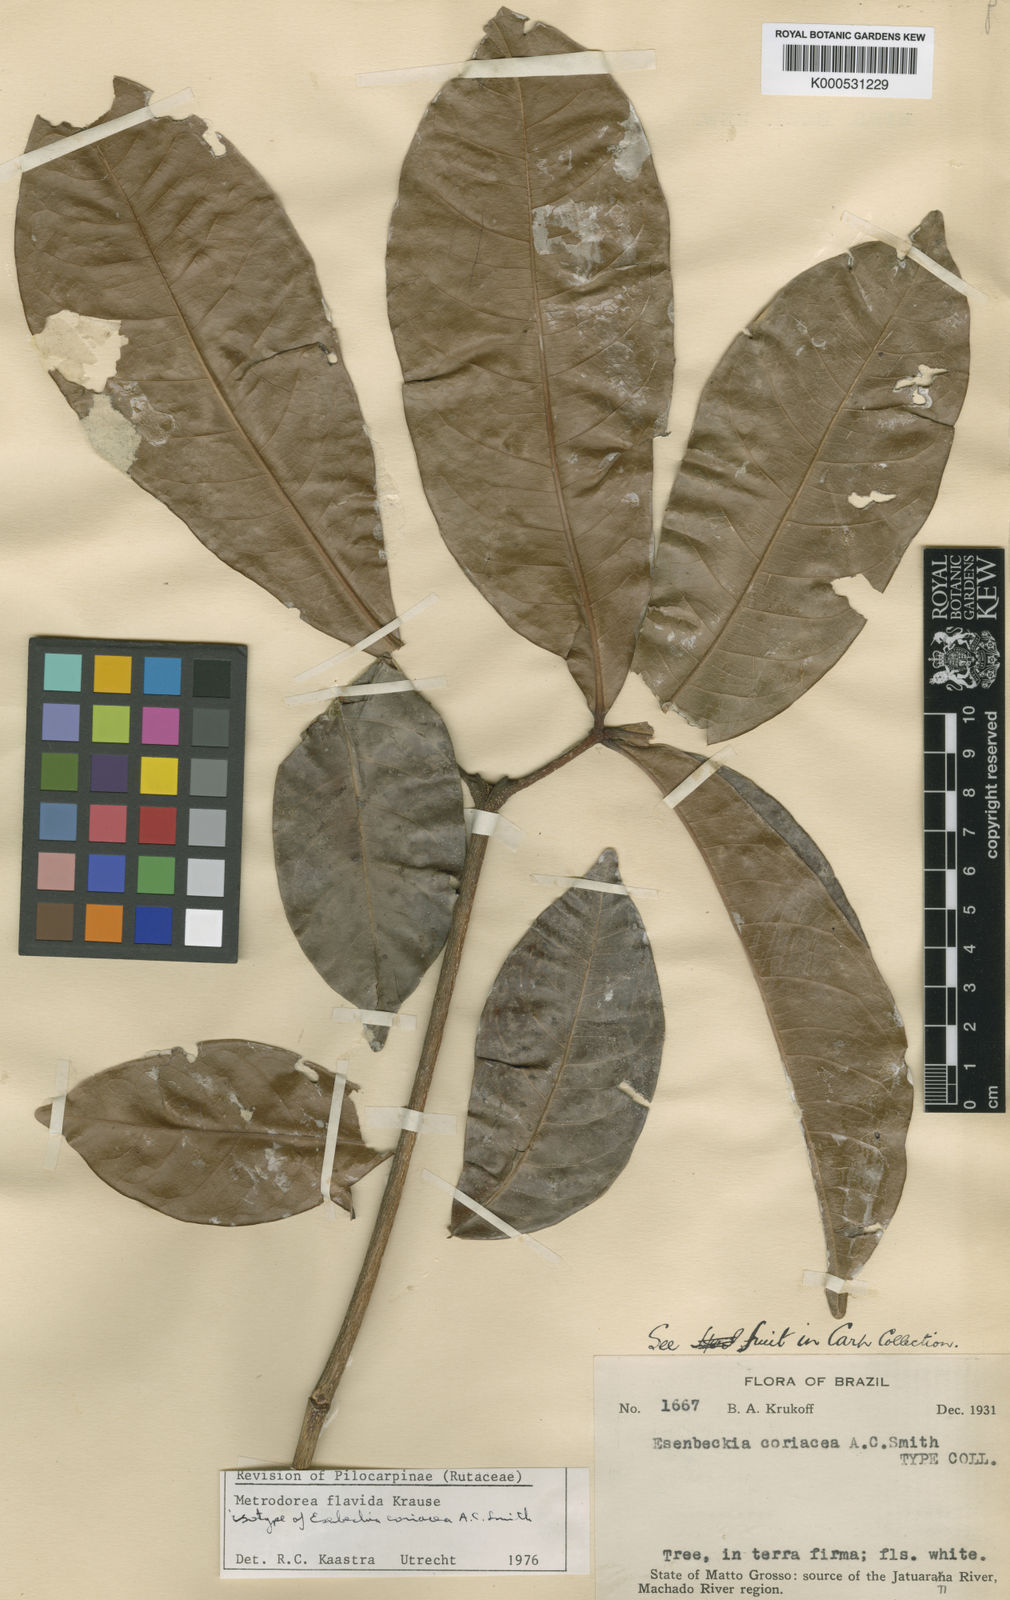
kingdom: Plantae
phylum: Tracheophyta
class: Magnoliopsida
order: Sapindales
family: Rutaceae
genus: Metrodorea
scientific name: Metrodorea flavida
